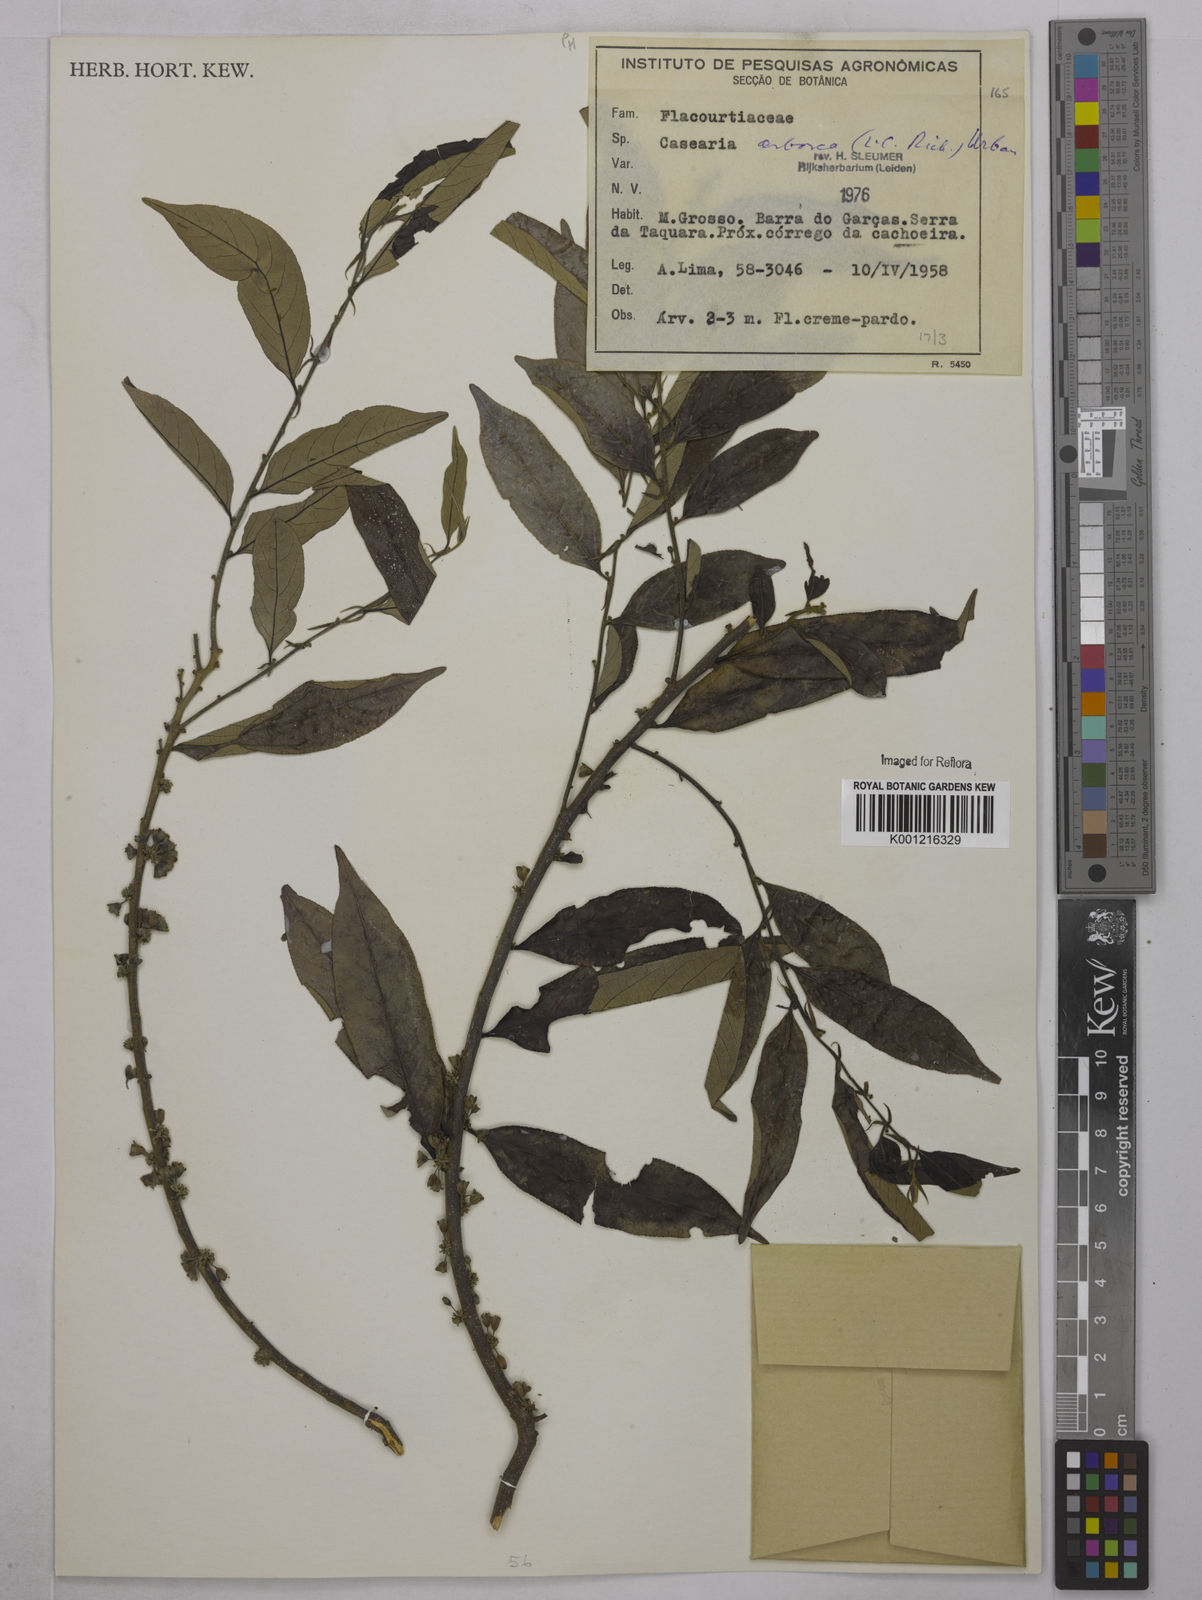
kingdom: Plantae
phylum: Tracheophyta
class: Magnoliopsida
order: Malpighiales
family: Salicaceae
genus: Casearia
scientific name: Casearia arborea
